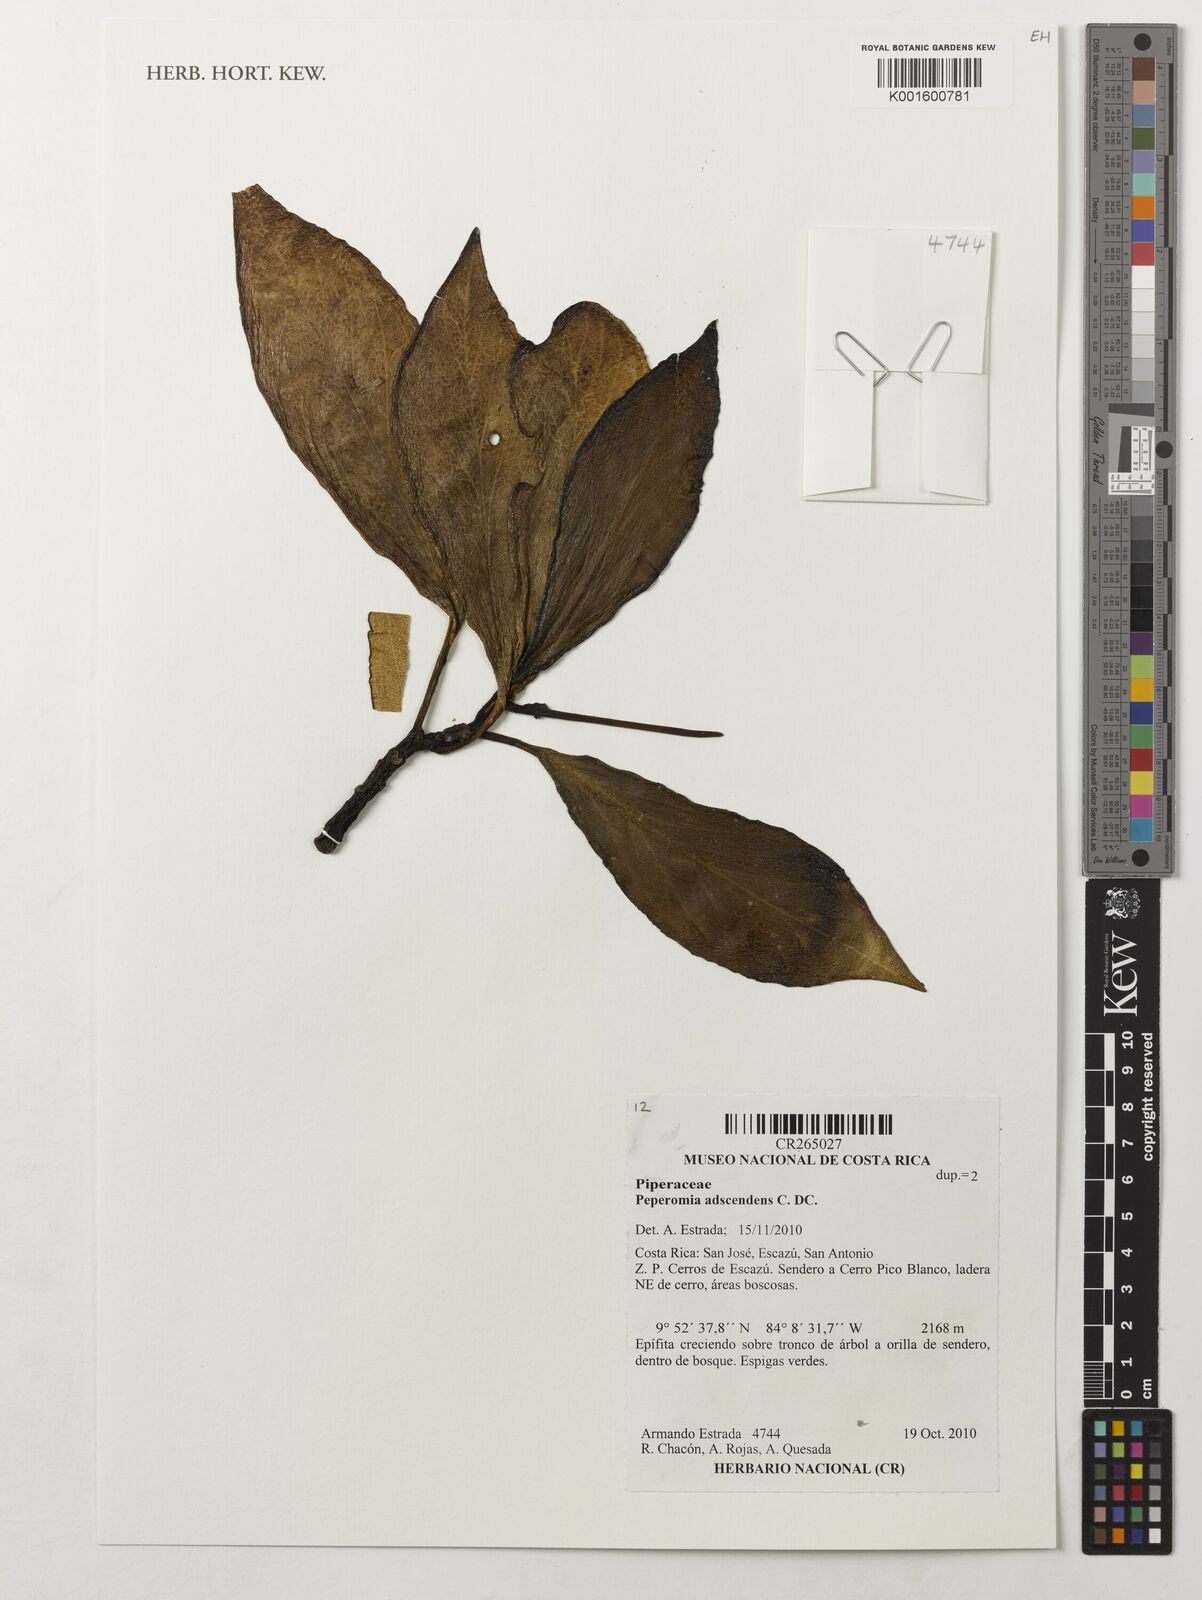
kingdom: Plantae
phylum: Tracheophyta
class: Magnoliopsida
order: Piperales
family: Piperaceae
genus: Peperomia
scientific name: Peperomia adscendens
